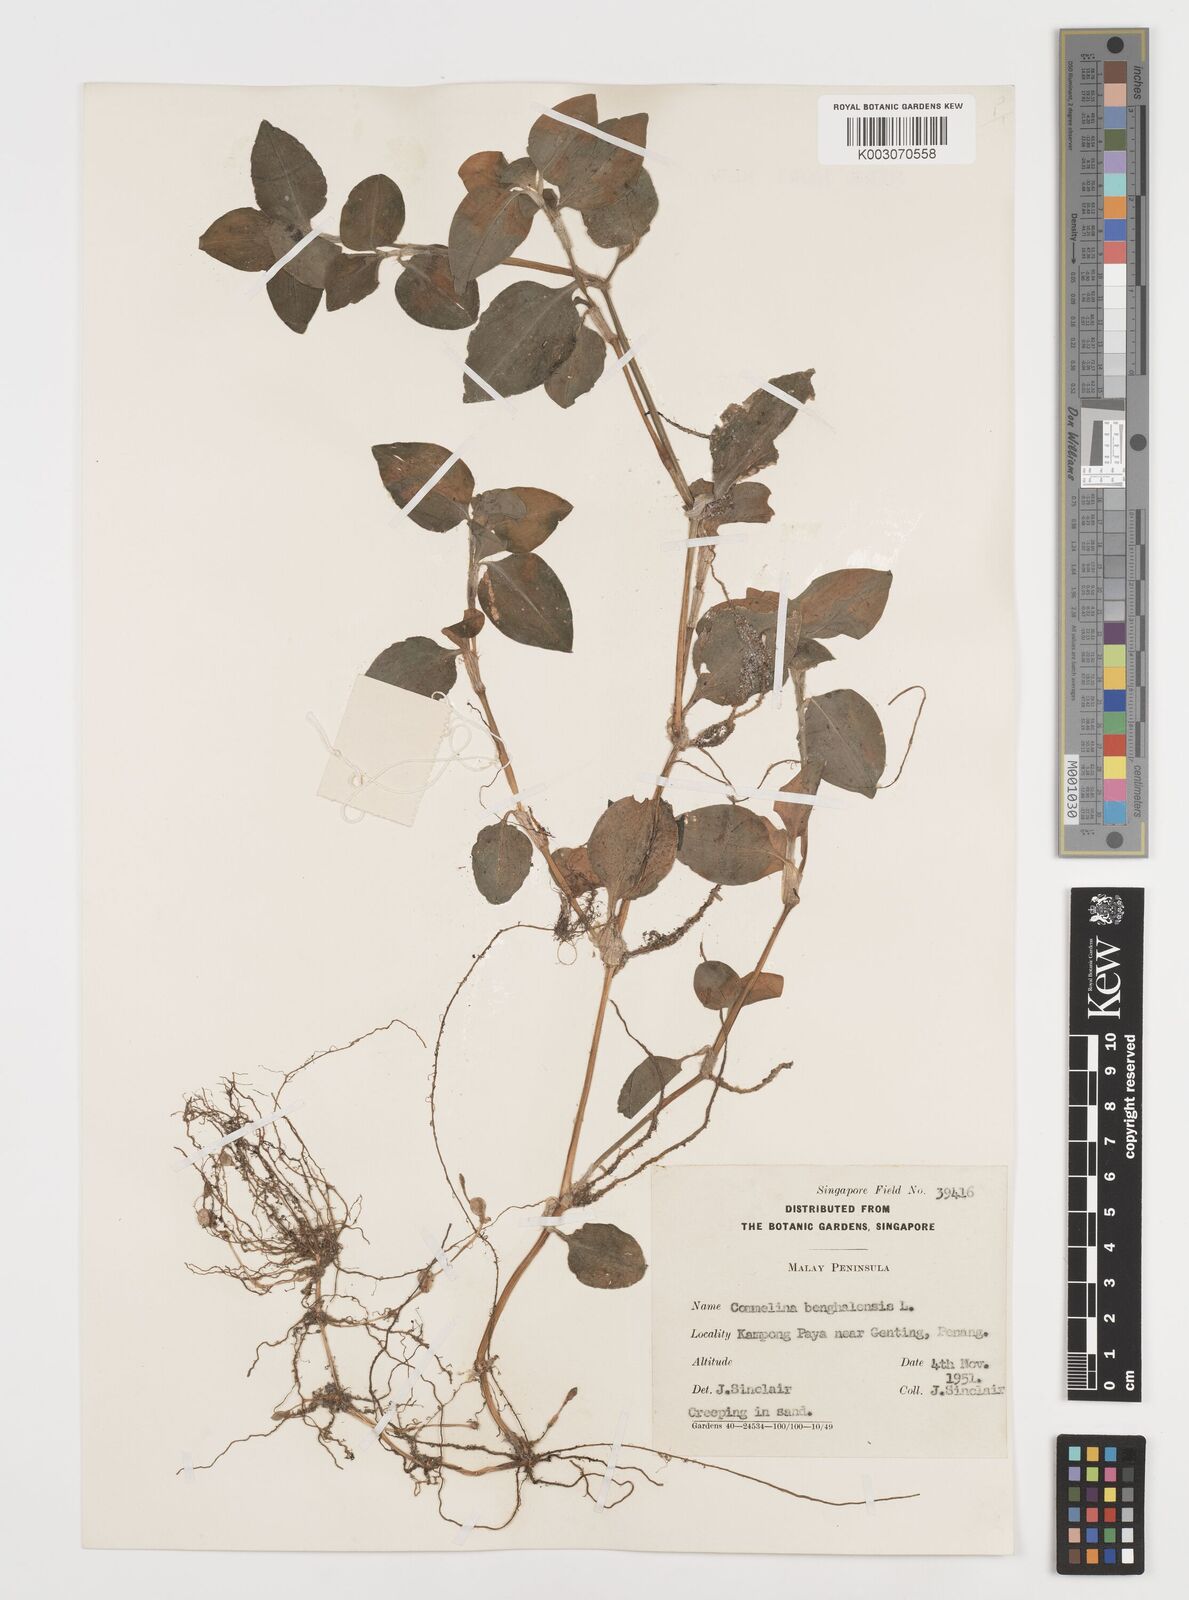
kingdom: Plantae
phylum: Tracheophyta
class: Liliopsida
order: Commelinales
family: Commelinaceae
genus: Commelina
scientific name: Commelina benghalensis
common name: Jio
